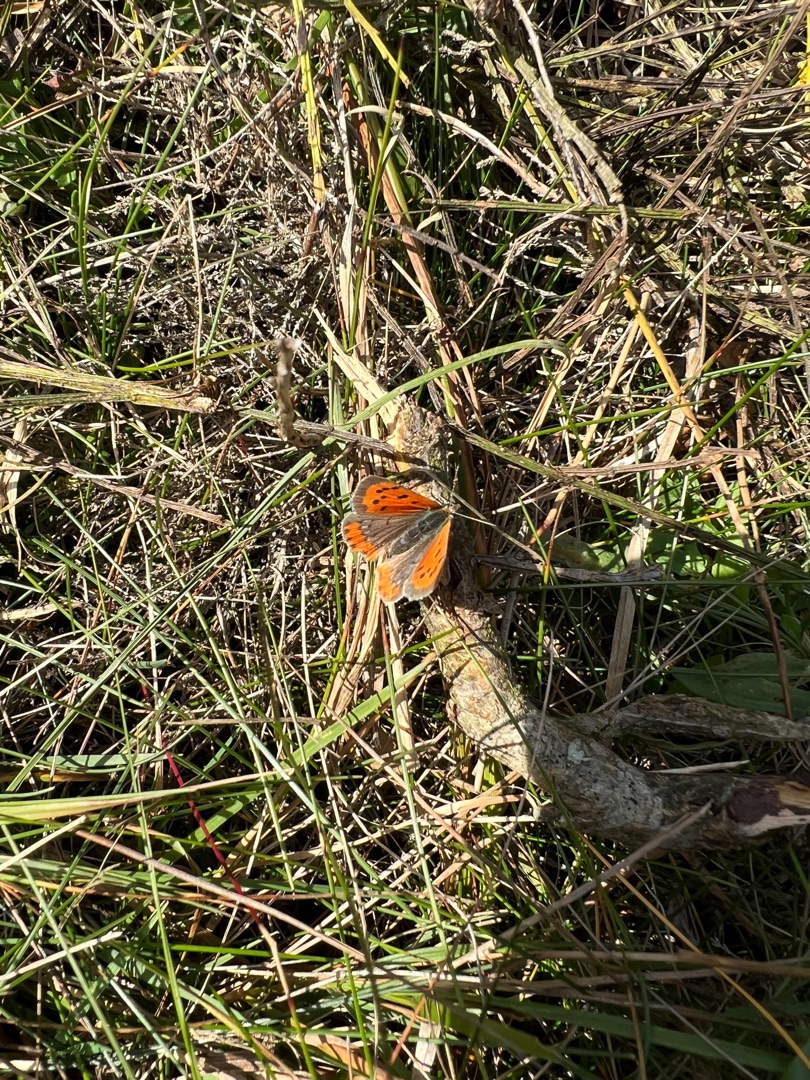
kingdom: Animalia
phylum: Arthropoda
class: Insecta
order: Lepidoptera
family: Lycaenidae
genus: Lycaena
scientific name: Lycaena phlaeas
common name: Lille ildfugl
